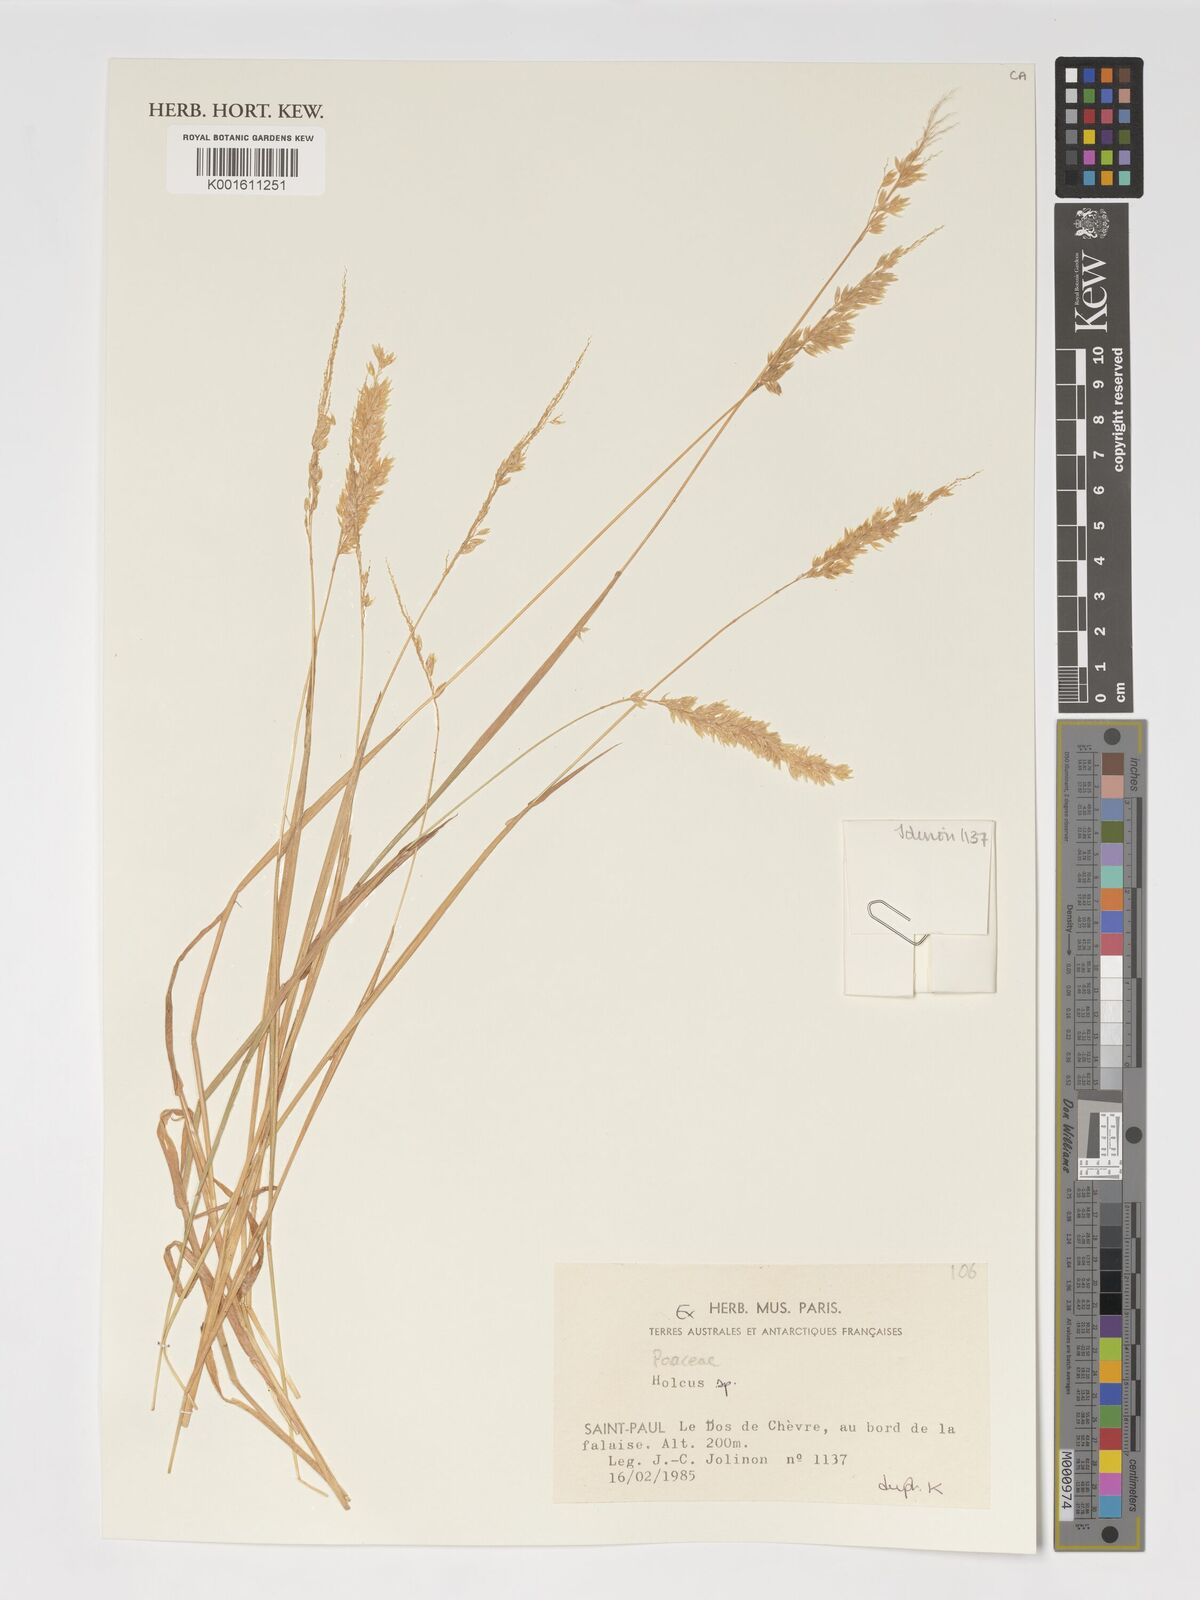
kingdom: Plantae
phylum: Tracheophyta
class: Liliopsida
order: Poales
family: Poaceae
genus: Holcus
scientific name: Holcus
